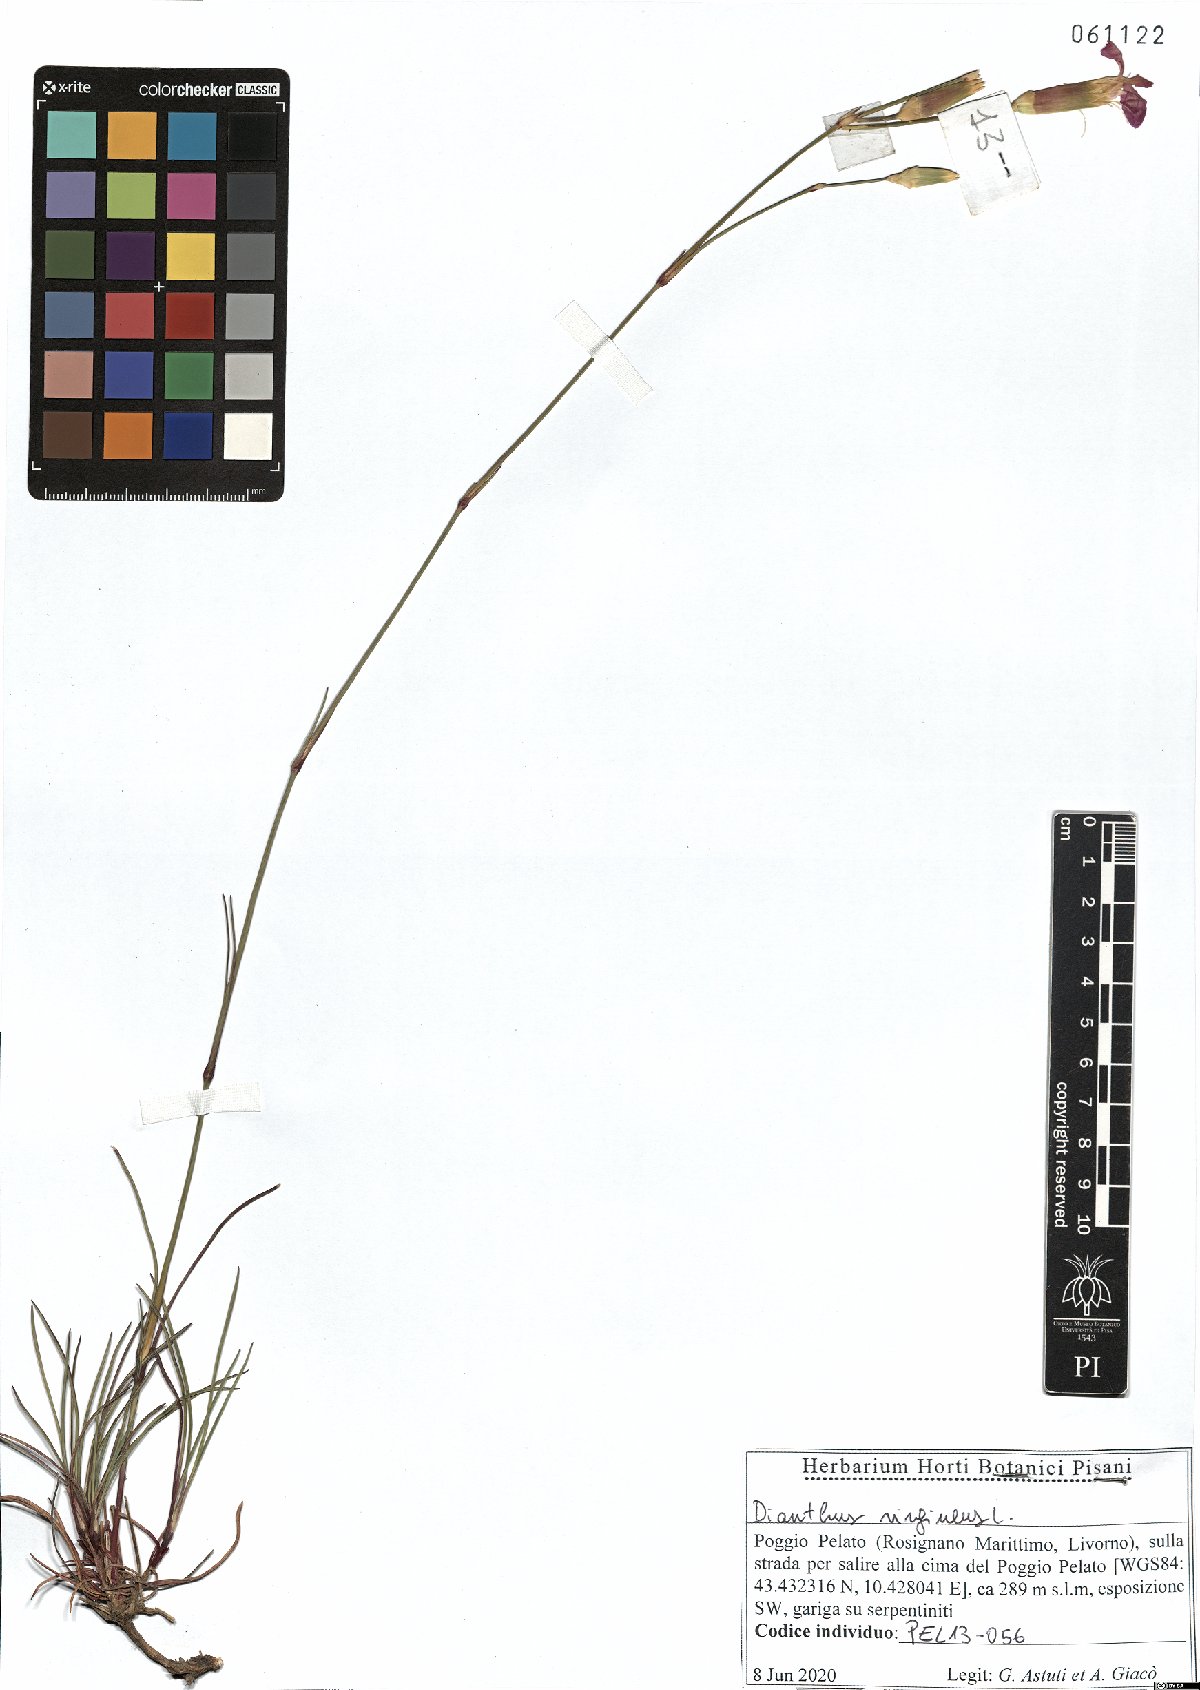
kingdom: Plantae
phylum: Tracheophyta
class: Magnoliopsida
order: Caryophyllales
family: Caryophyllaceae
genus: Dianthus
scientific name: Dianthus virgineus
